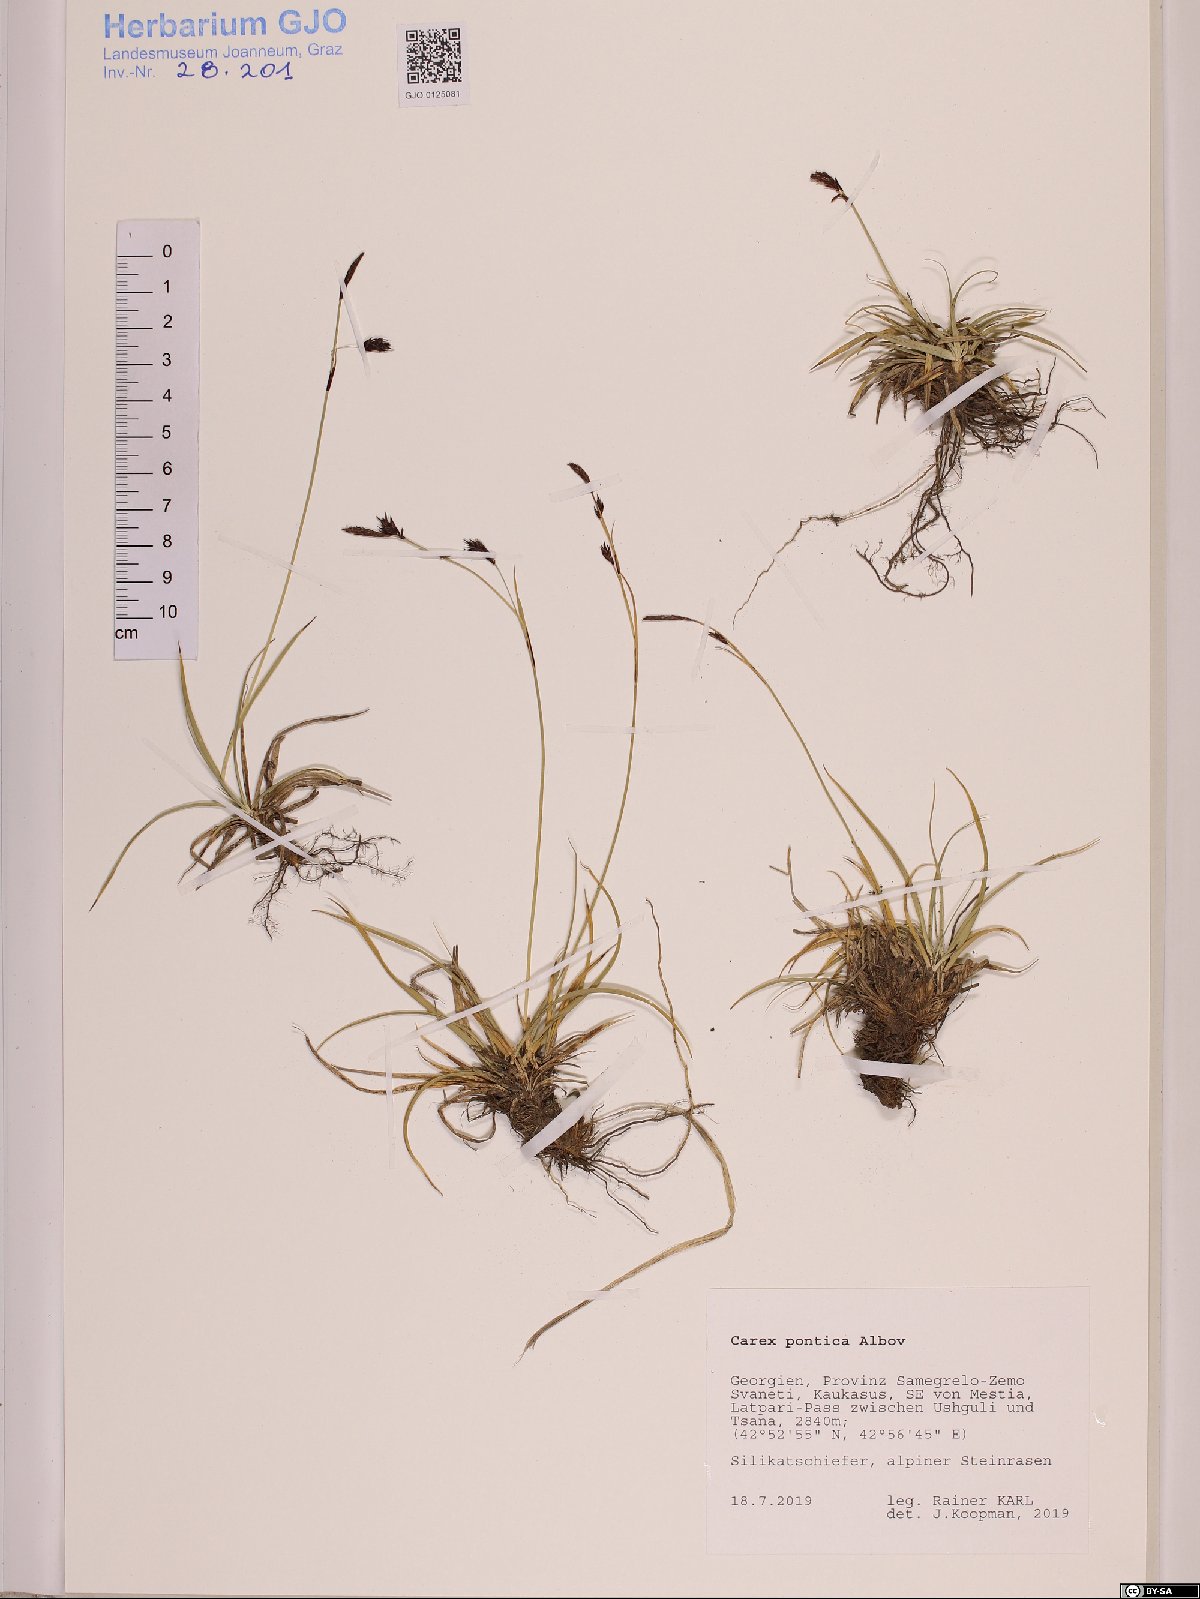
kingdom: Plantae
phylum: Tracheophyta
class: Liliopsida
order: Poales
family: Cyperaceae
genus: Carex
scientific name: Carex pontica
